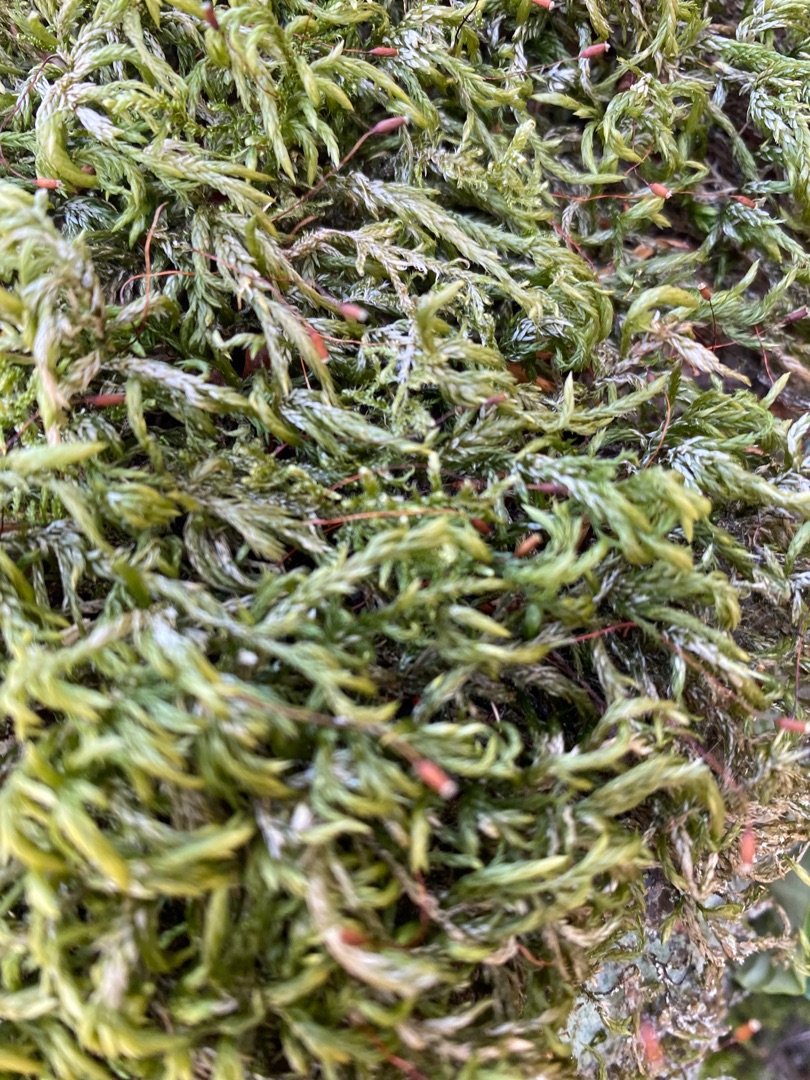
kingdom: Plantae
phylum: Bryophyta
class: Bryopsida
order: Hypnales
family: Lembophyllaceae
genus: Isothecium
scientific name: Isothecium alopecuroides
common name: Stor stammemos
